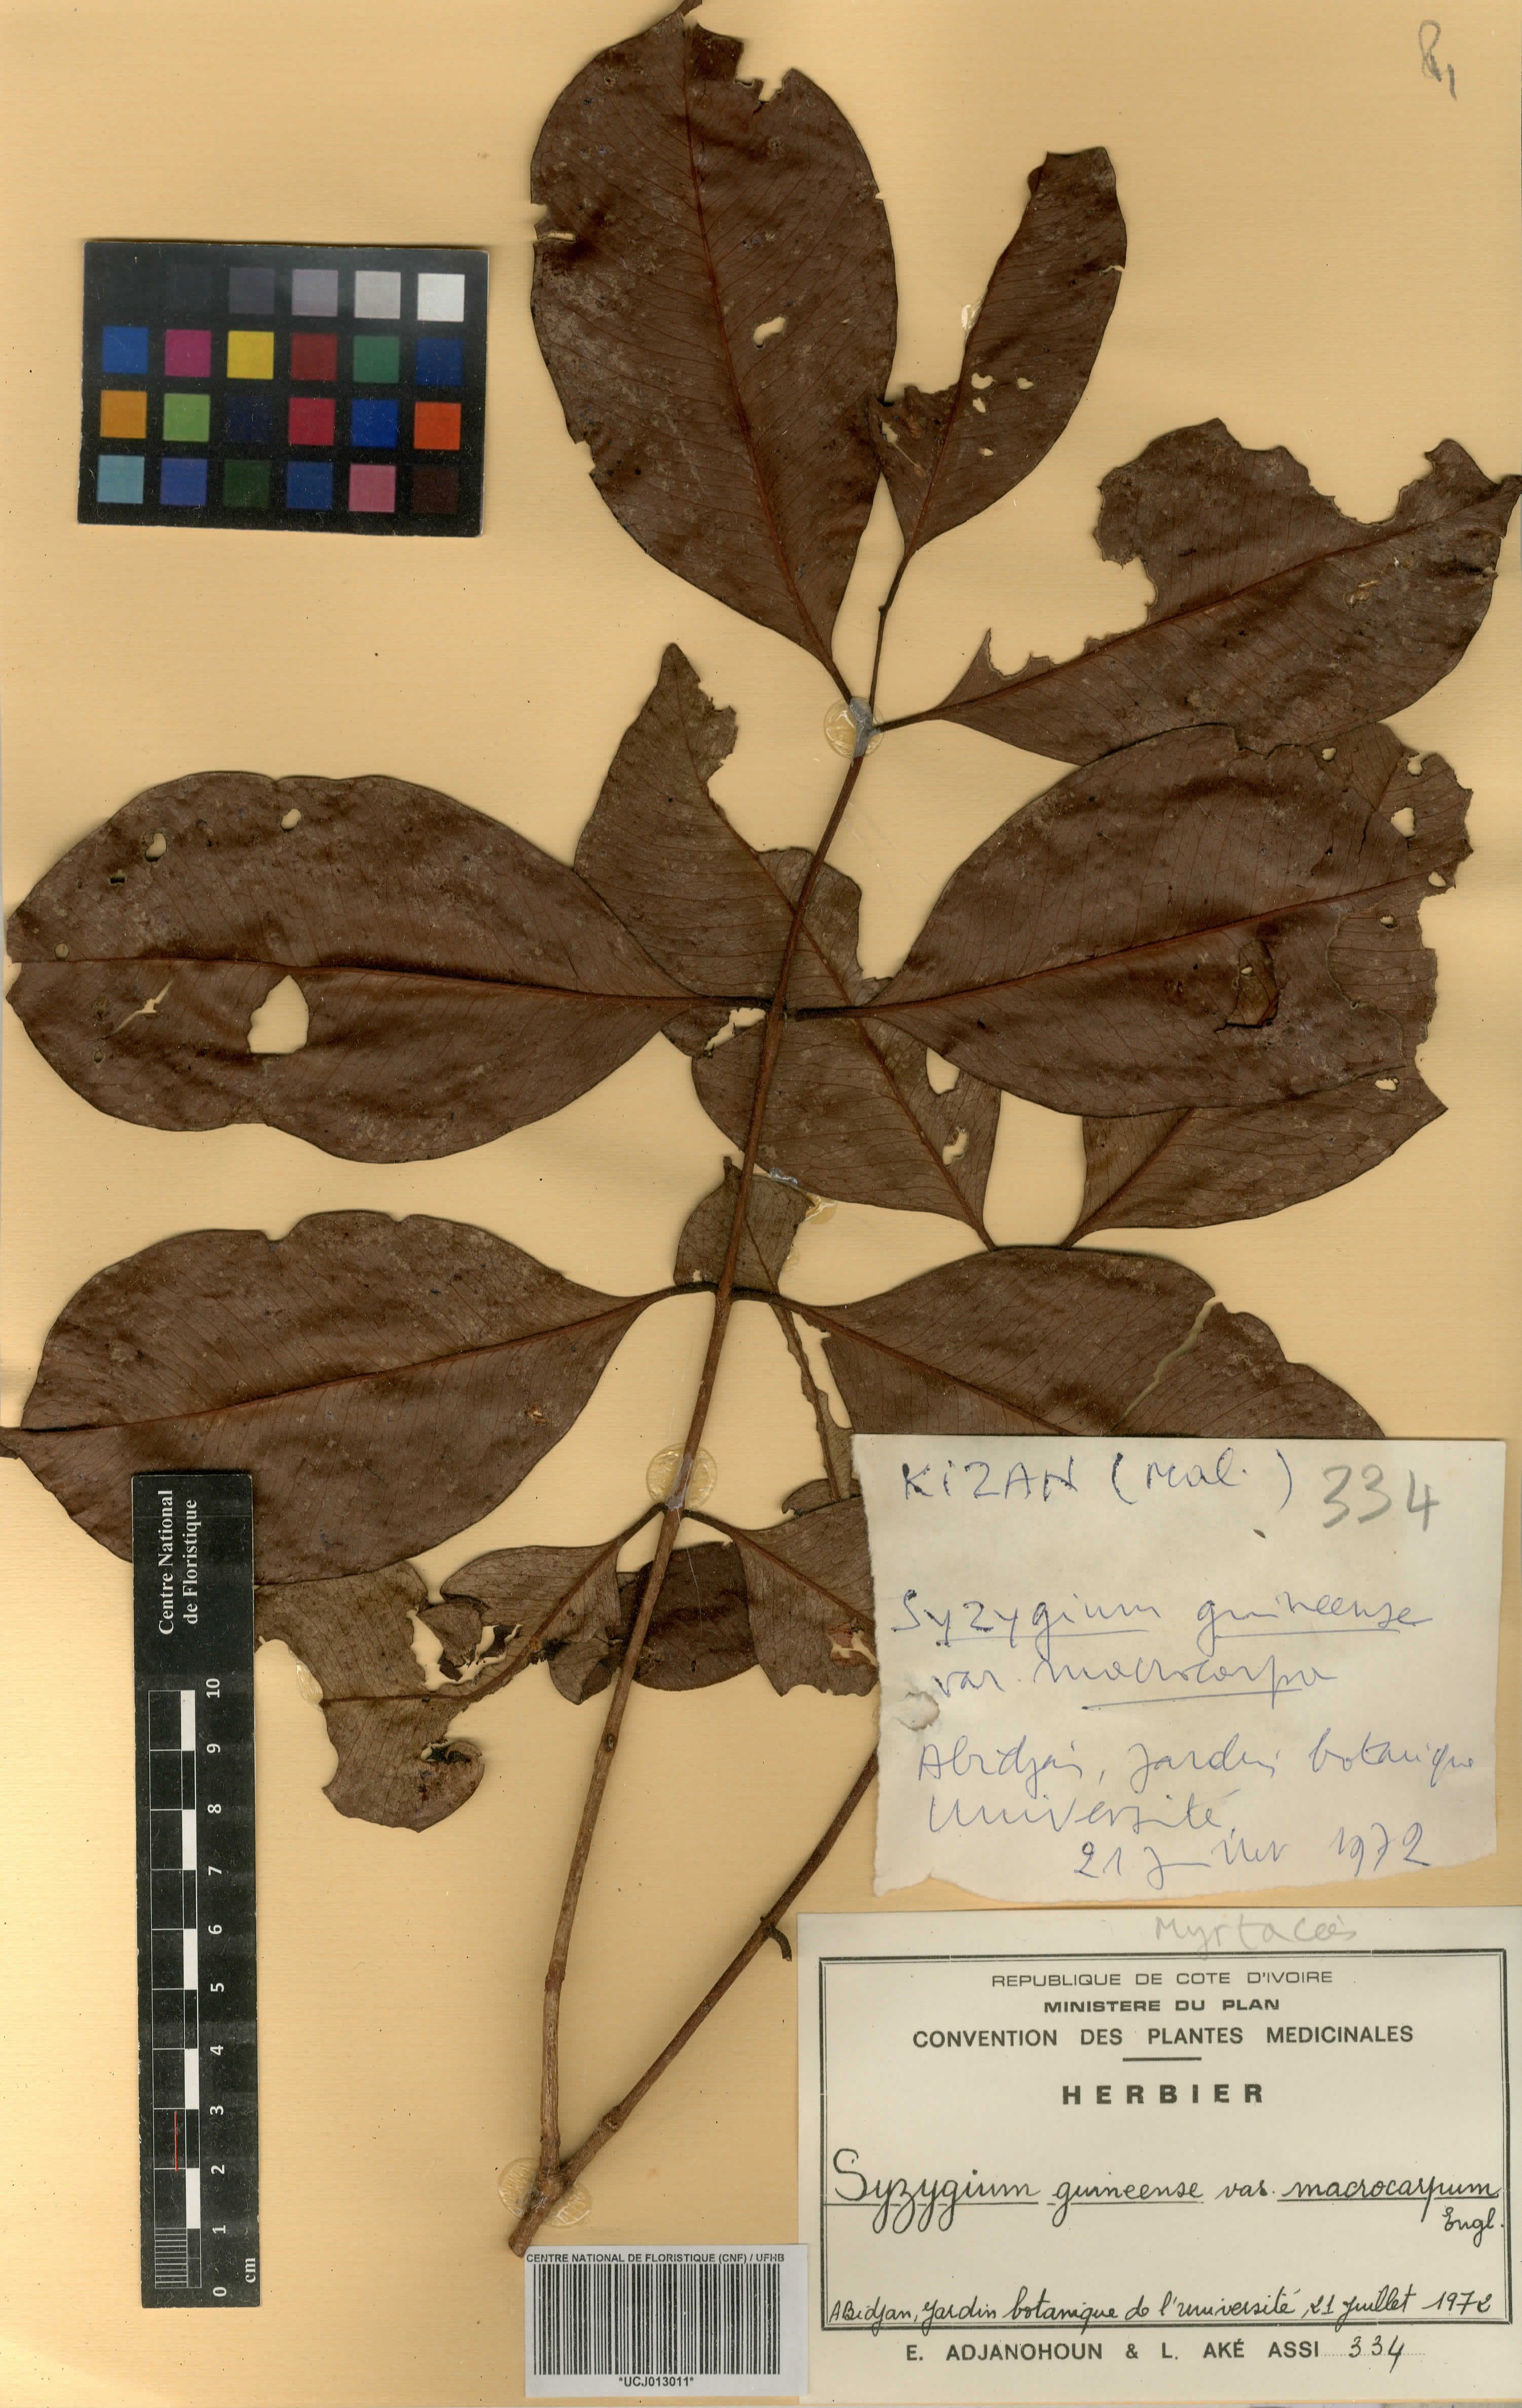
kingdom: Plantae
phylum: Tracheophyta
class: Magnoliopsida
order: Myrtales
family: Myrtaceae
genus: Syzygium
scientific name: Syzygium guineense
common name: Water-pear
